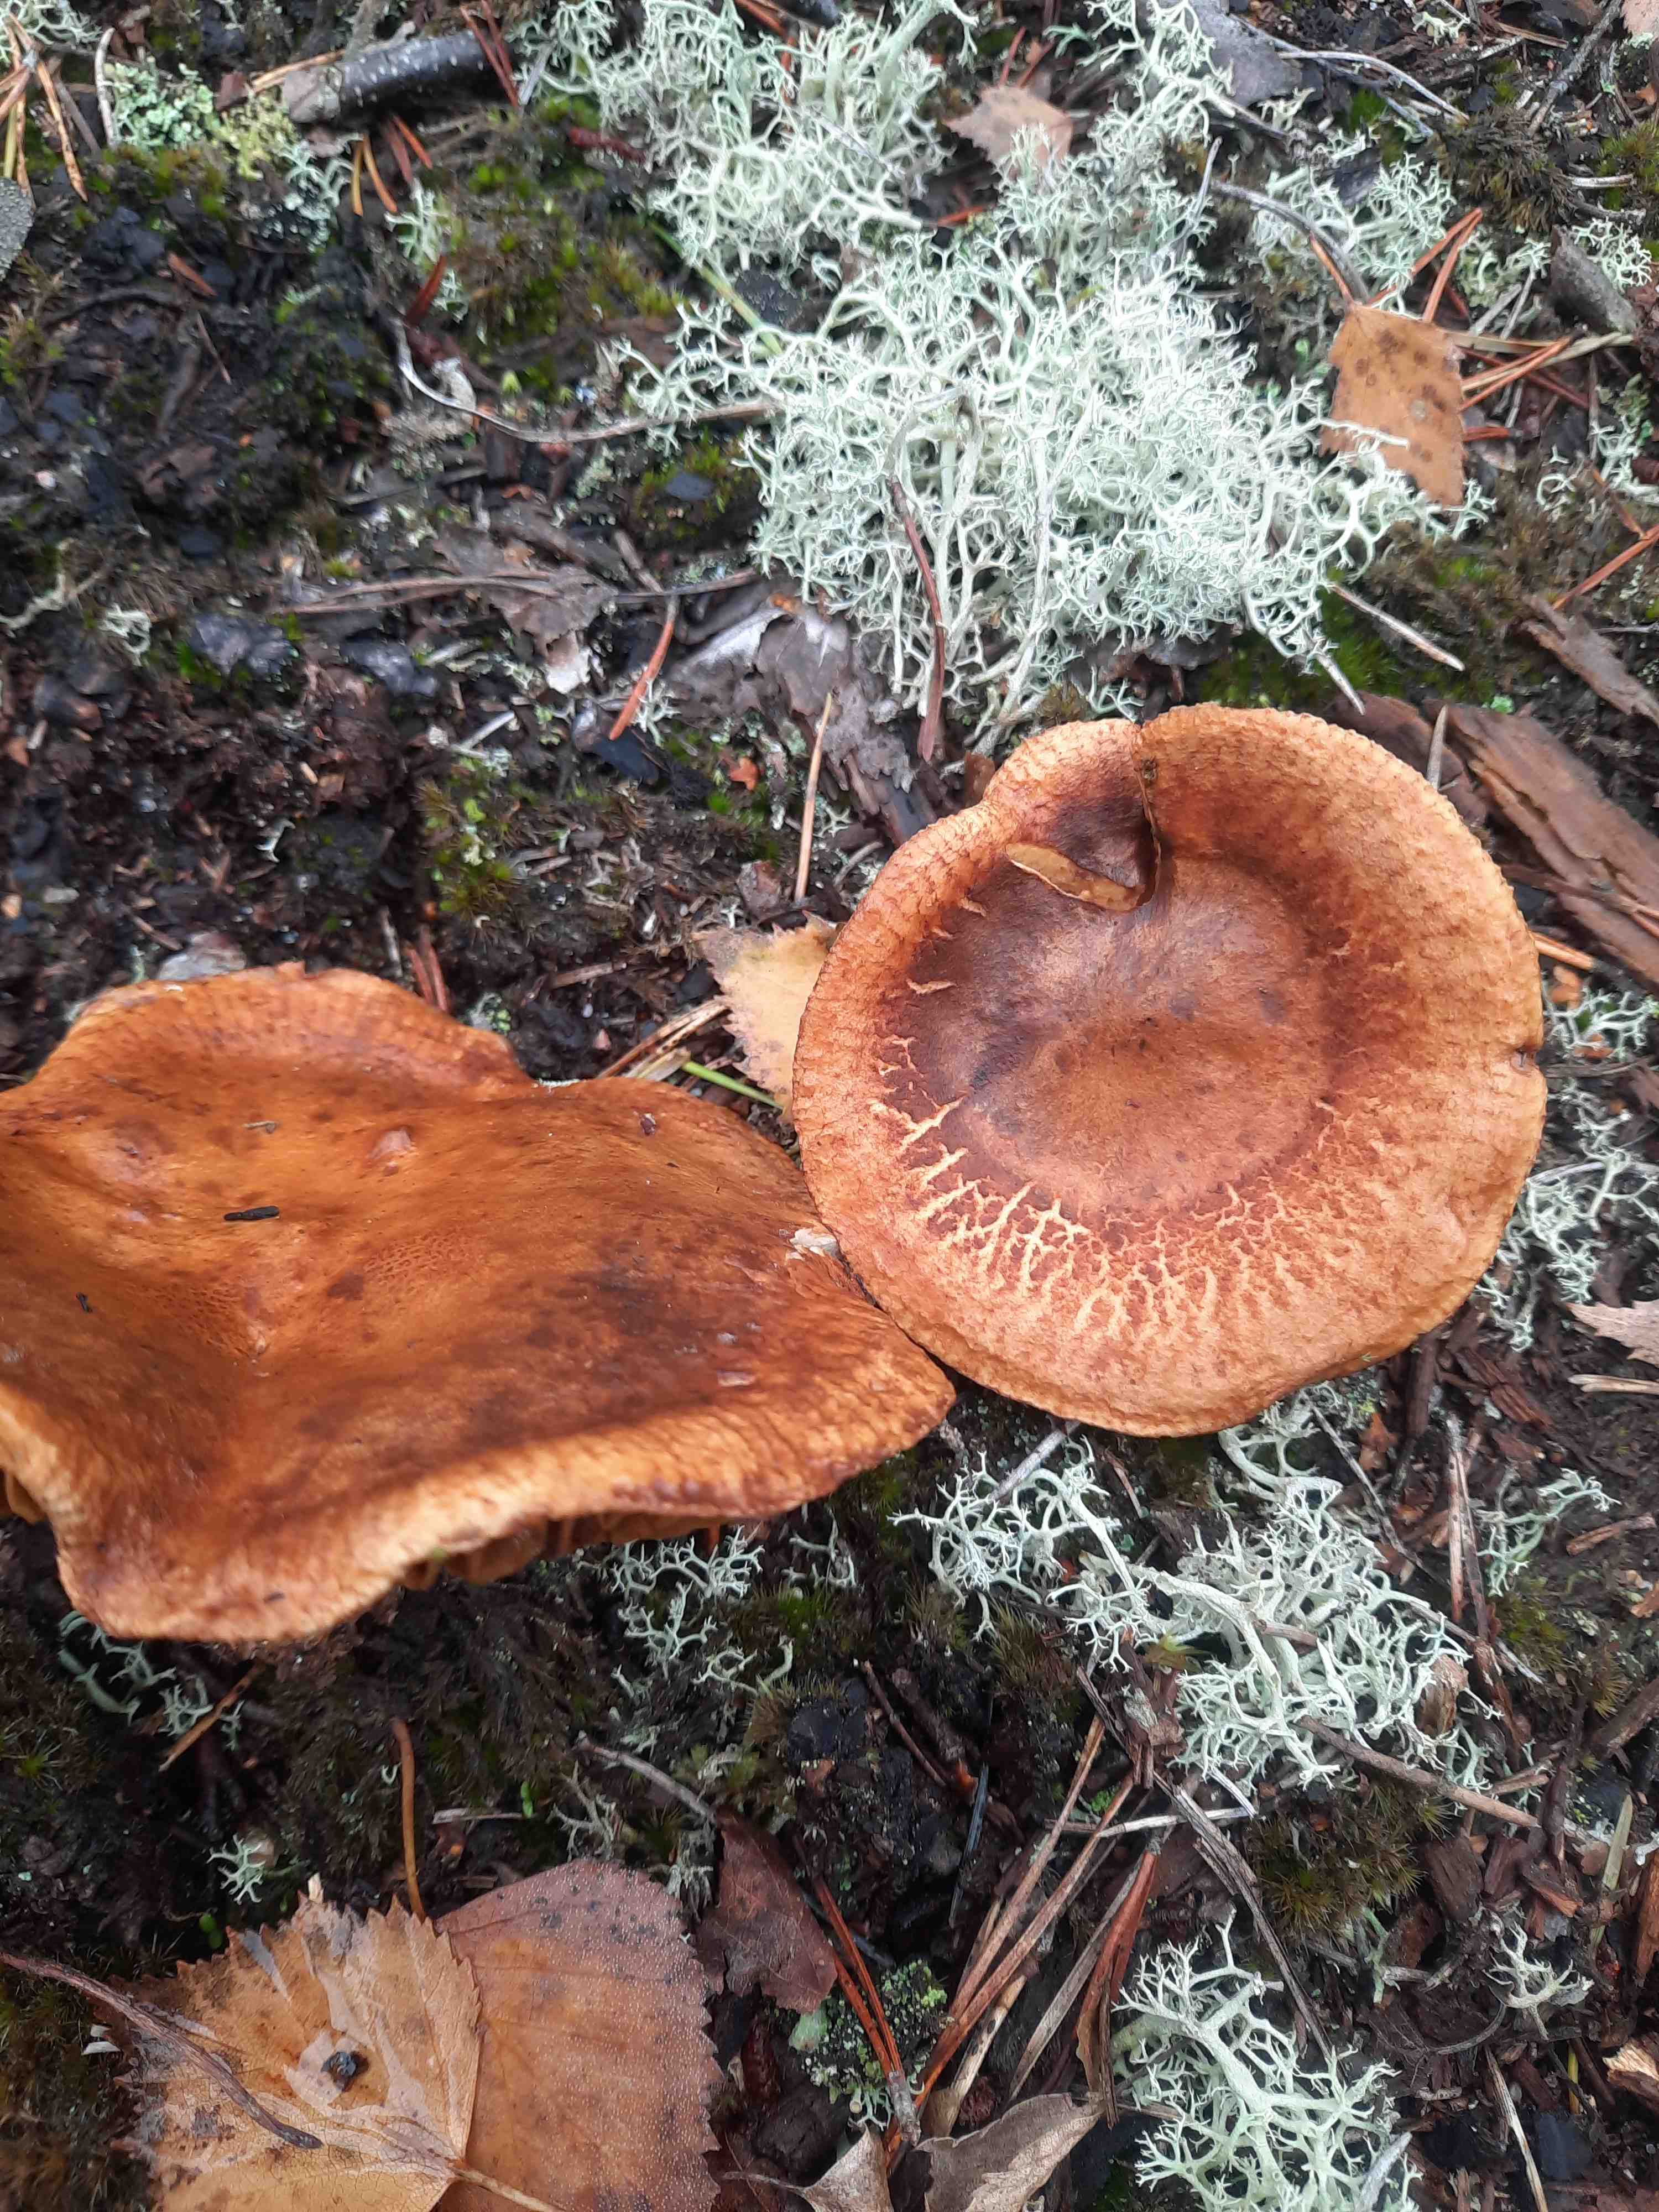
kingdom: Fungi
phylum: Basidiomycota
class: Agaricomycetes
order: Boletales
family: Paxillaceae
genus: Paxillus
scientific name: Paxillus involutus
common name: almindelig netbladhat
